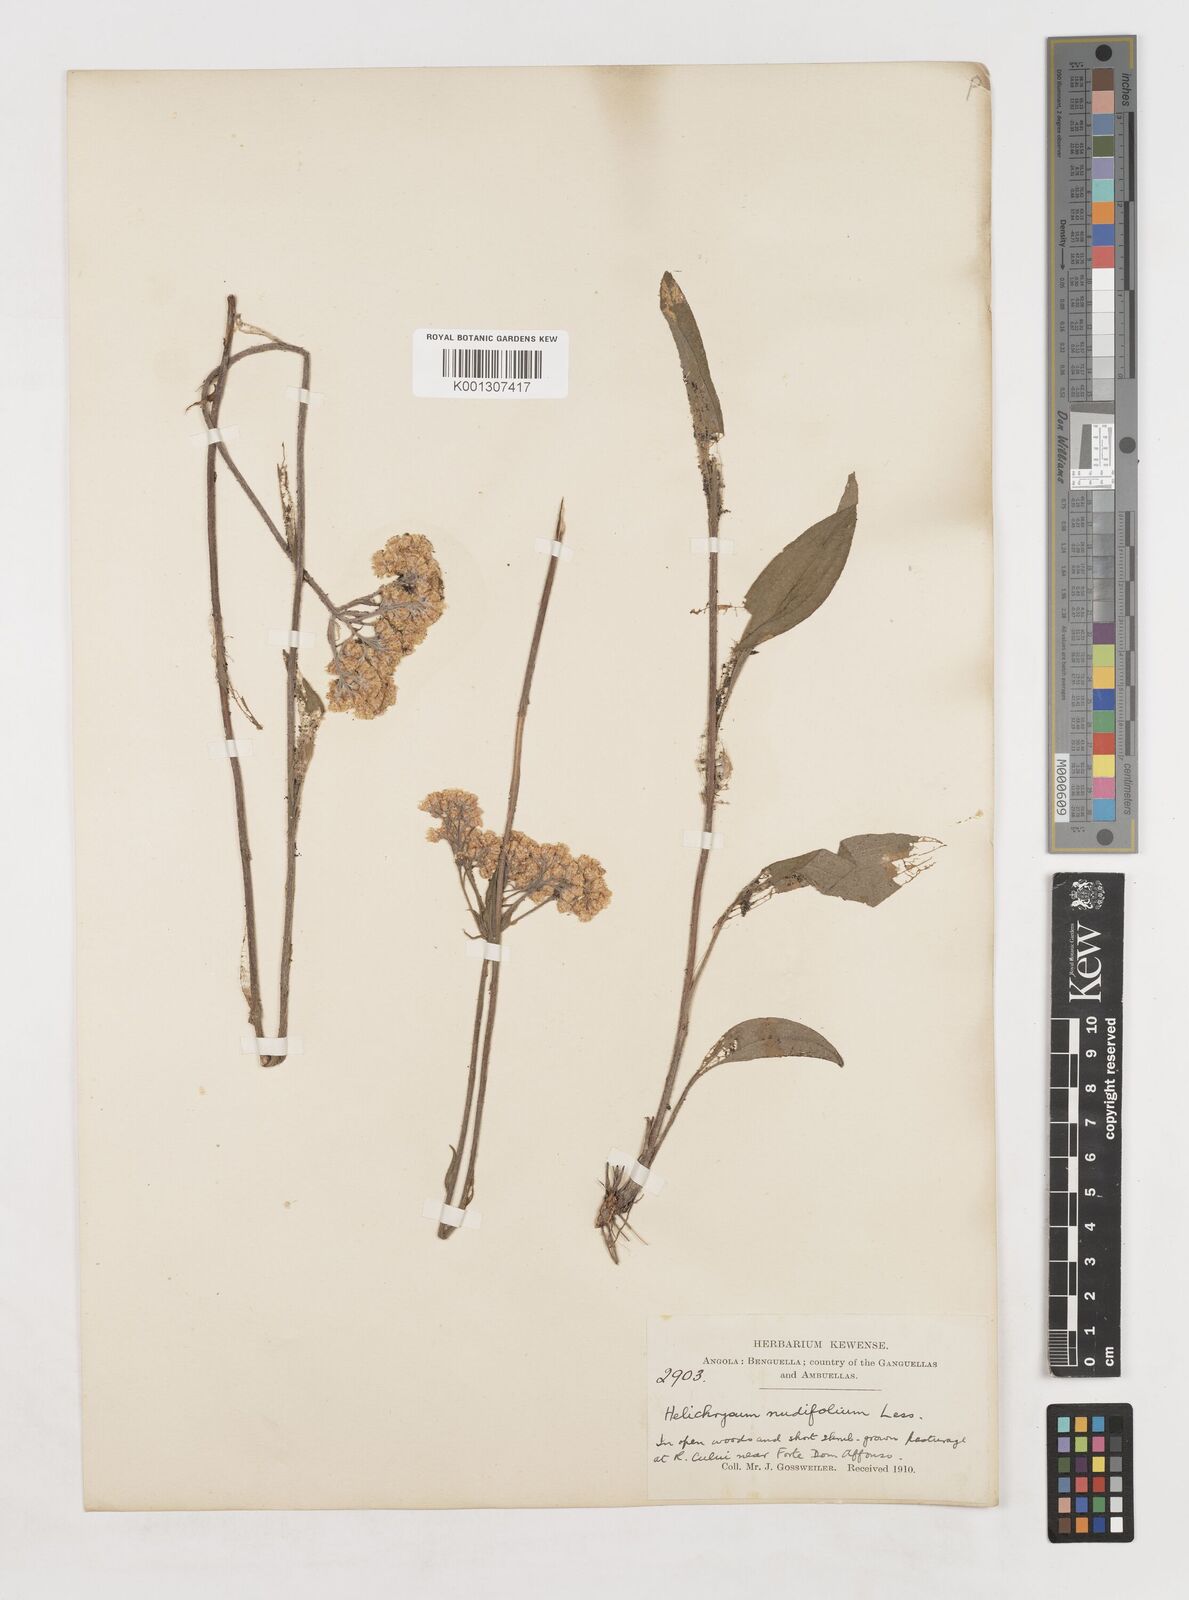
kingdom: Plantae
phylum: Tracheophyta
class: Magnoliopsida
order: Asterales
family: Asteraceae
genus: Helichrysum
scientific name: Helichrysum nudifolium
